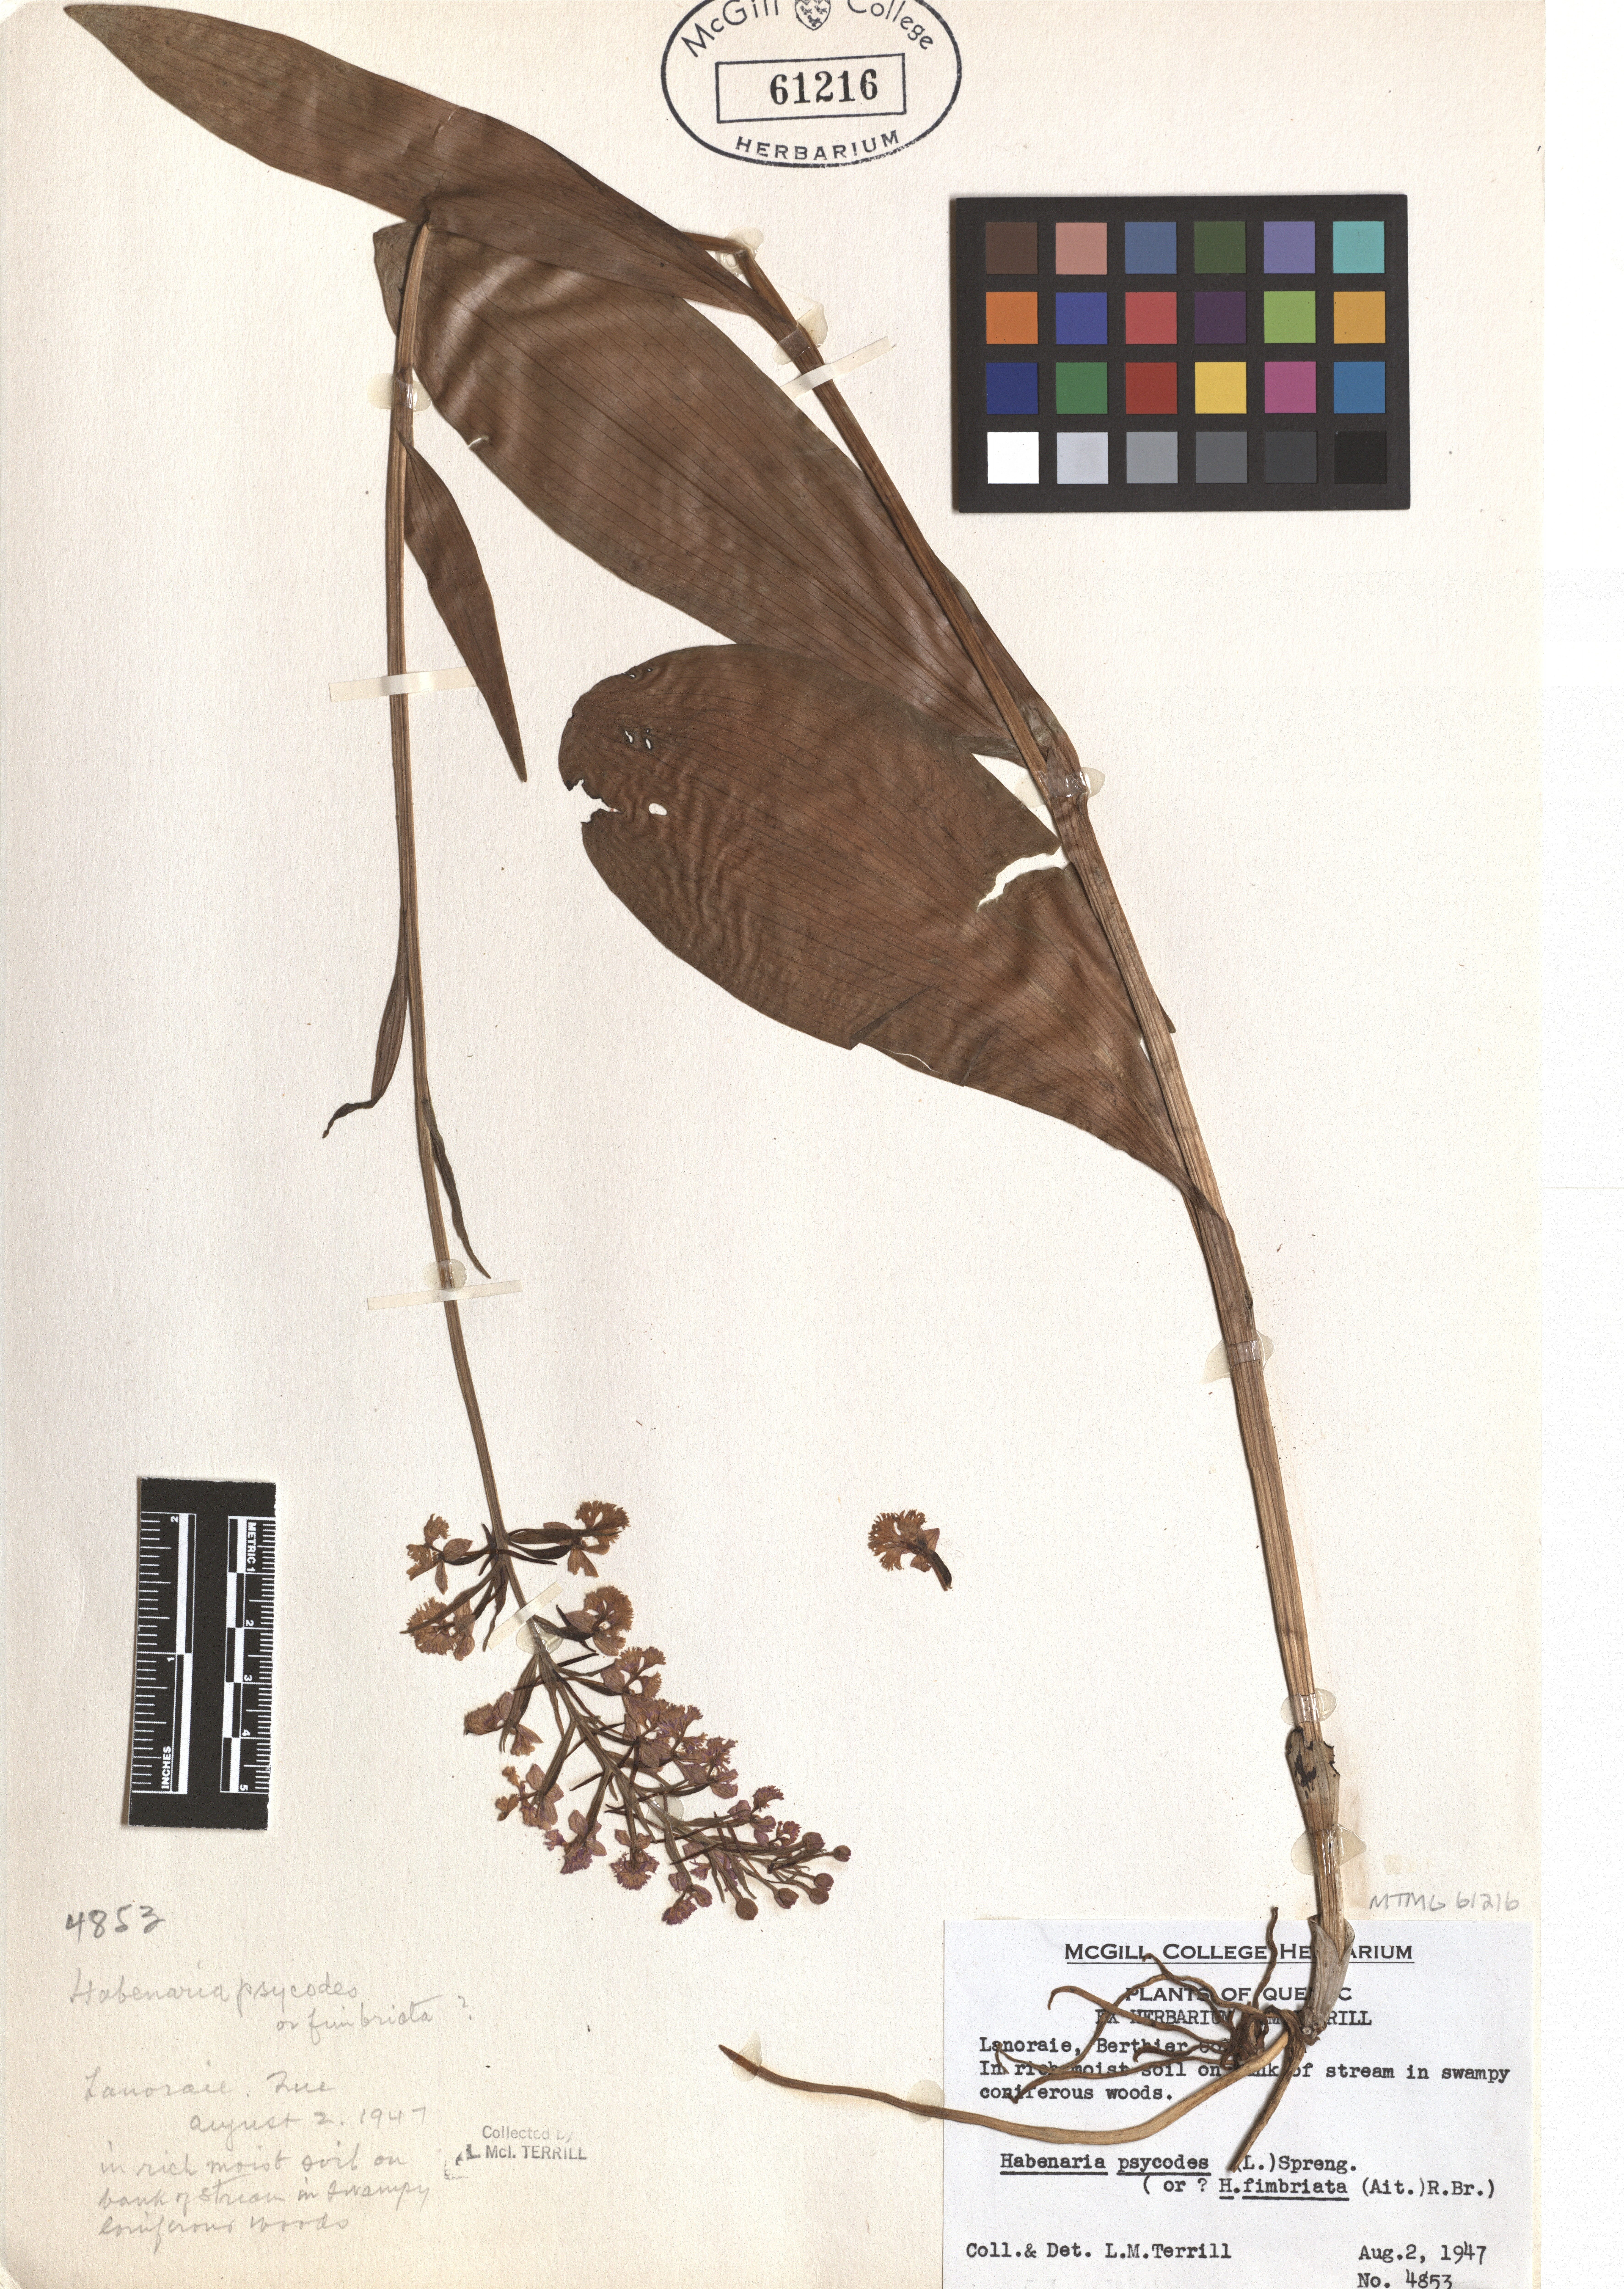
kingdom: Plantae
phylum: Tracheophyta
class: Liliopsida
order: Asparagales
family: Orchidaceae
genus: Platanthera
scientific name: Platanthera psycodes
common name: Lesser purple fringed orchid
